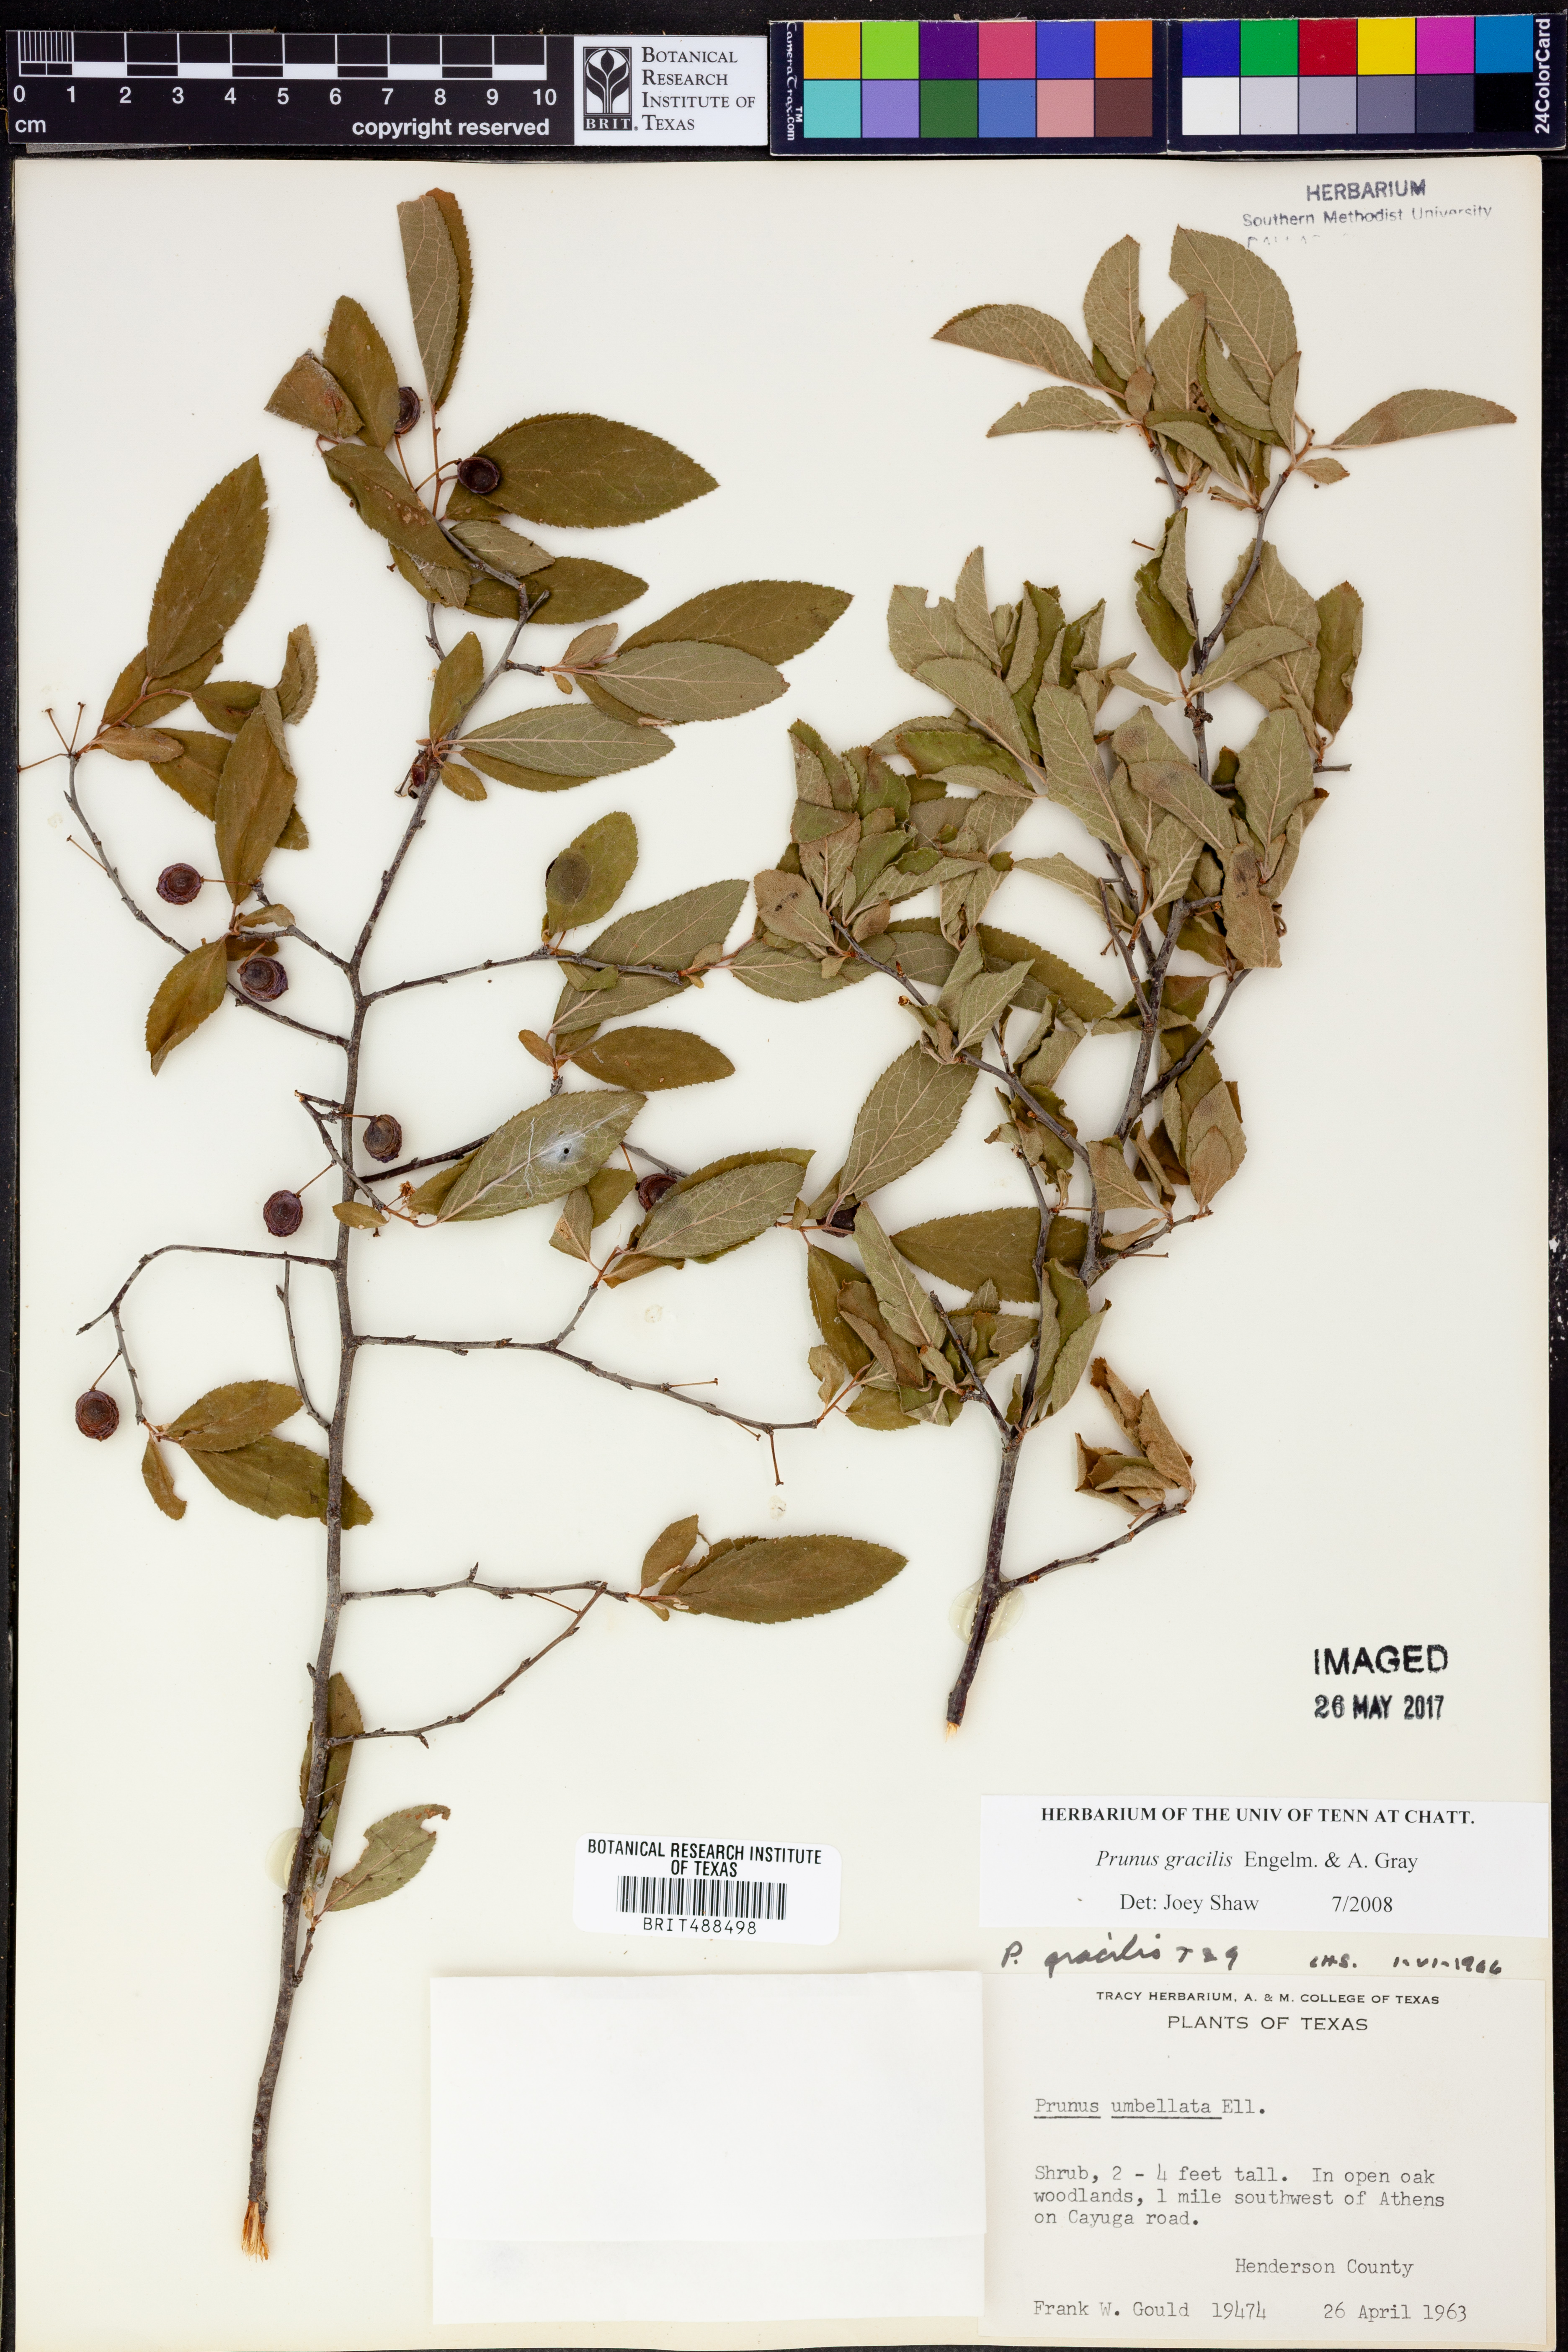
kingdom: Plantae
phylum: Tracheophyta
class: Magnoliopsida
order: Rosales
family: Rosaceae
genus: Prunus
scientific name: Prunus gracilis
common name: Oklahoma plum
